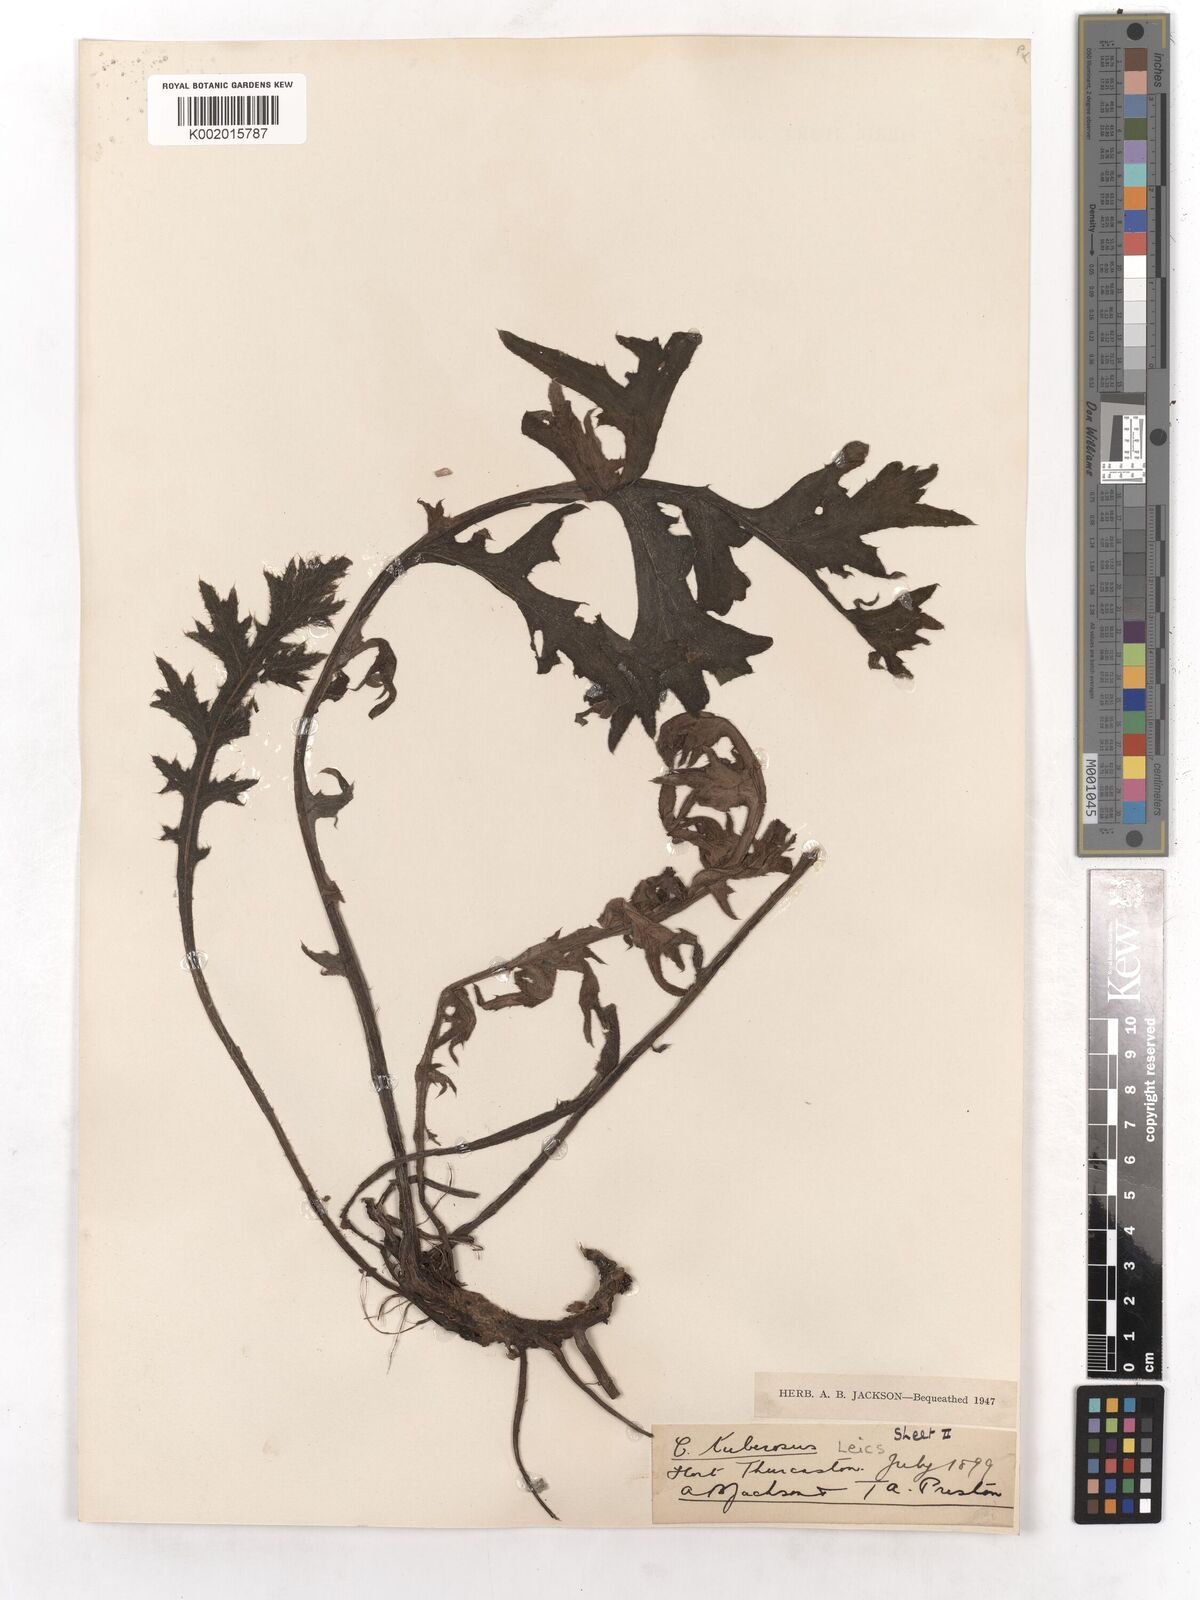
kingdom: Plantae
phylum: Tracheophyta
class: Magnoliopsida
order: Asterales
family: Asteraceae
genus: Cirsium
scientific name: Cirsium tuberosum
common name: Tuberous thistle
